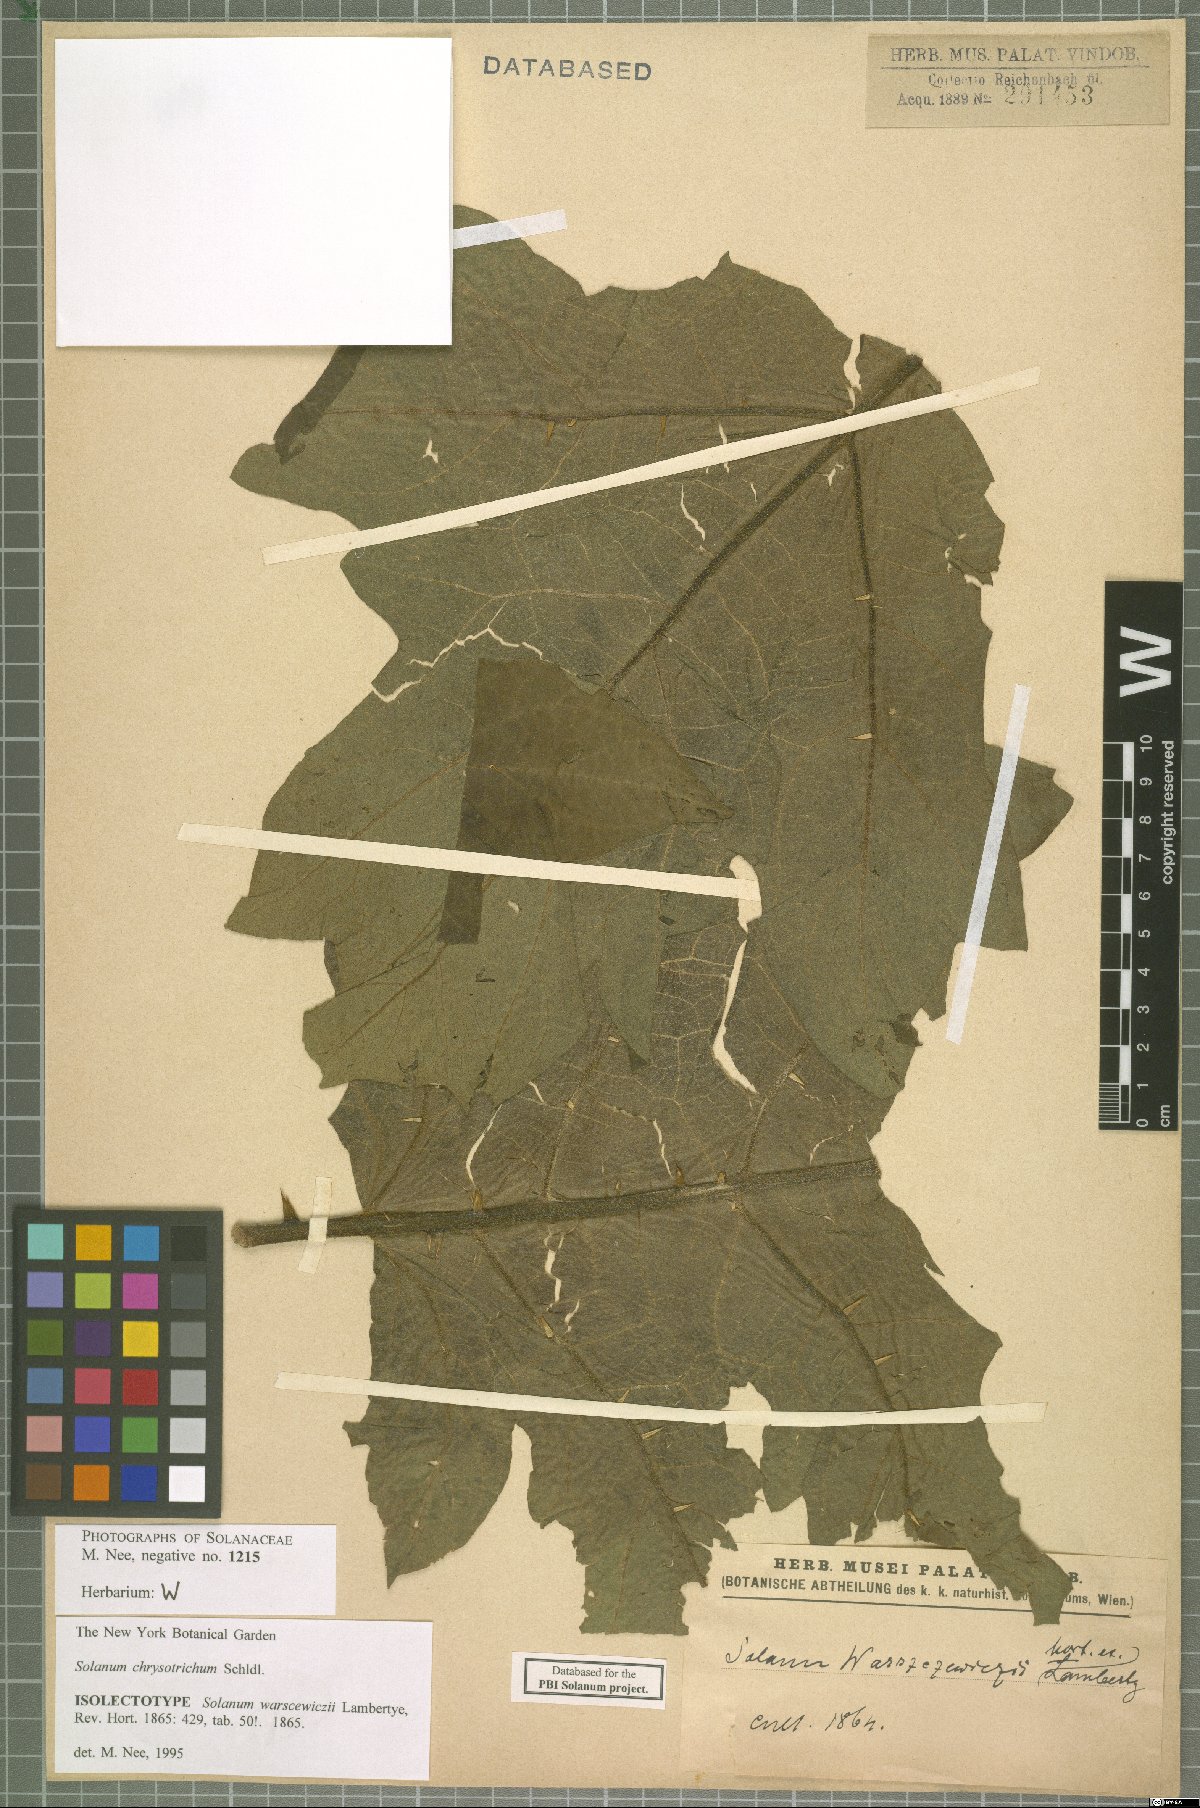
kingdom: Plantae
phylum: Tracheophyta
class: Magnoliopsida
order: Solanales
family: Solanaceae
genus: Solanum
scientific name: Solanum chrysotrichum
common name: Nightshade
